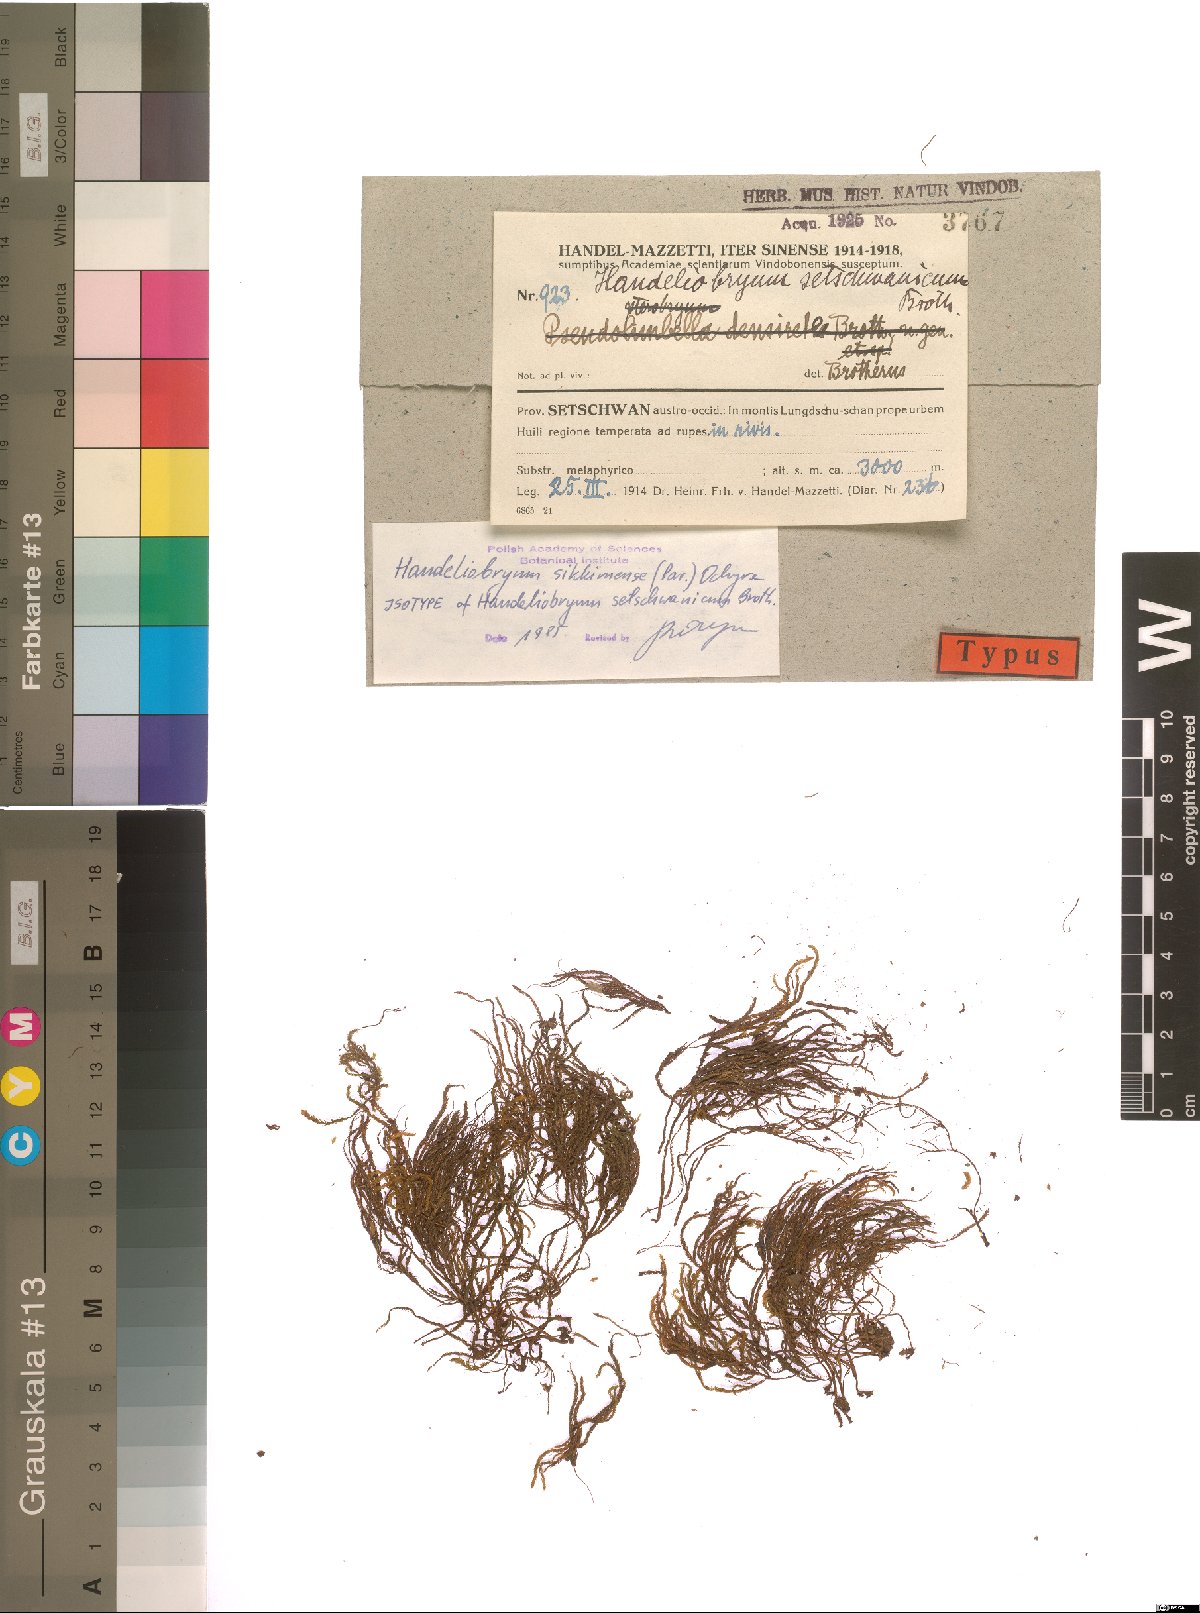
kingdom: Plantae
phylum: Bryophyta
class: Bryopsida
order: Hypnales
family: Neckeraceae
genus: Handeliobryum
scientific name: Handeliobryum sikkimense
